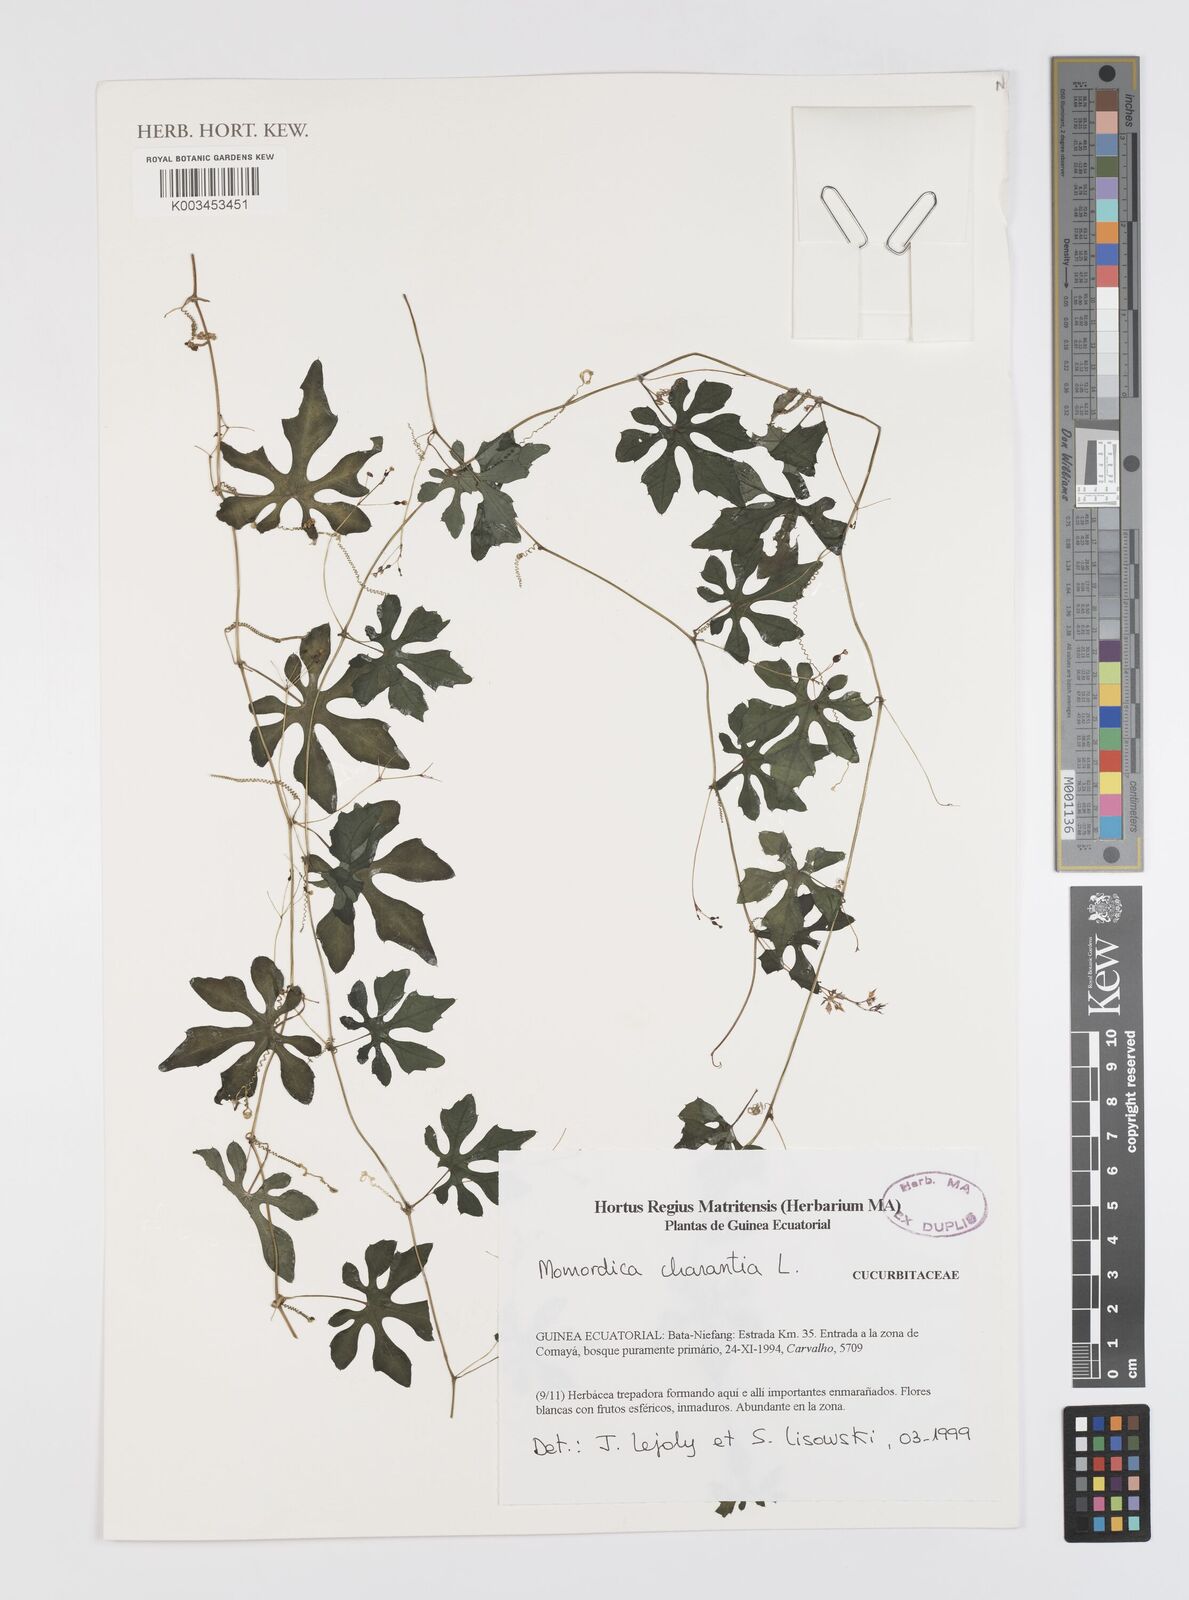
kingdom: Plantae
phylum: Tracheophyta
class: Magnoliopsida
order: Cucurbitales
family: Cucurbitaceae
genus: Momordica
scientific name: Momordica charantia
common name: Balsampear
